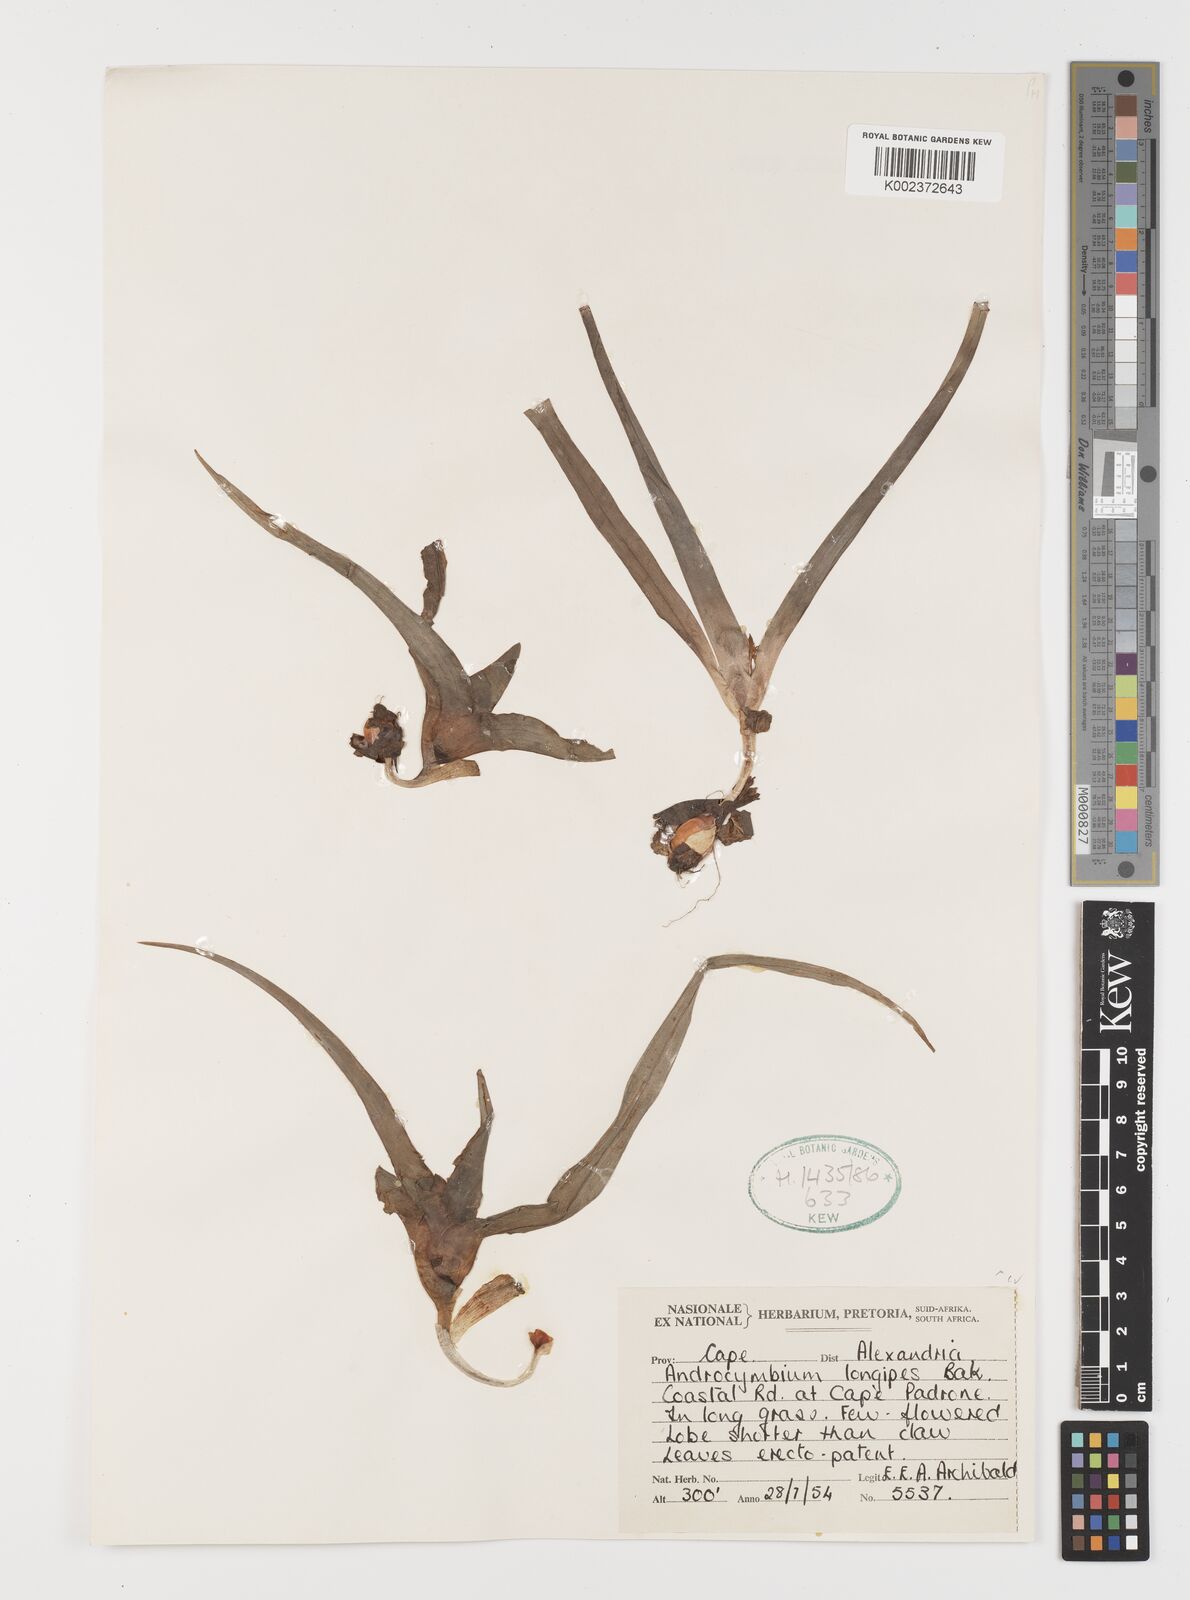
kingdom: Plantae
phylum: Tracheophyta
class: Liliopsida
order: Liliales
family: Colchicaceae
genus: Colchicum
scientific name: Colchicum longipes
